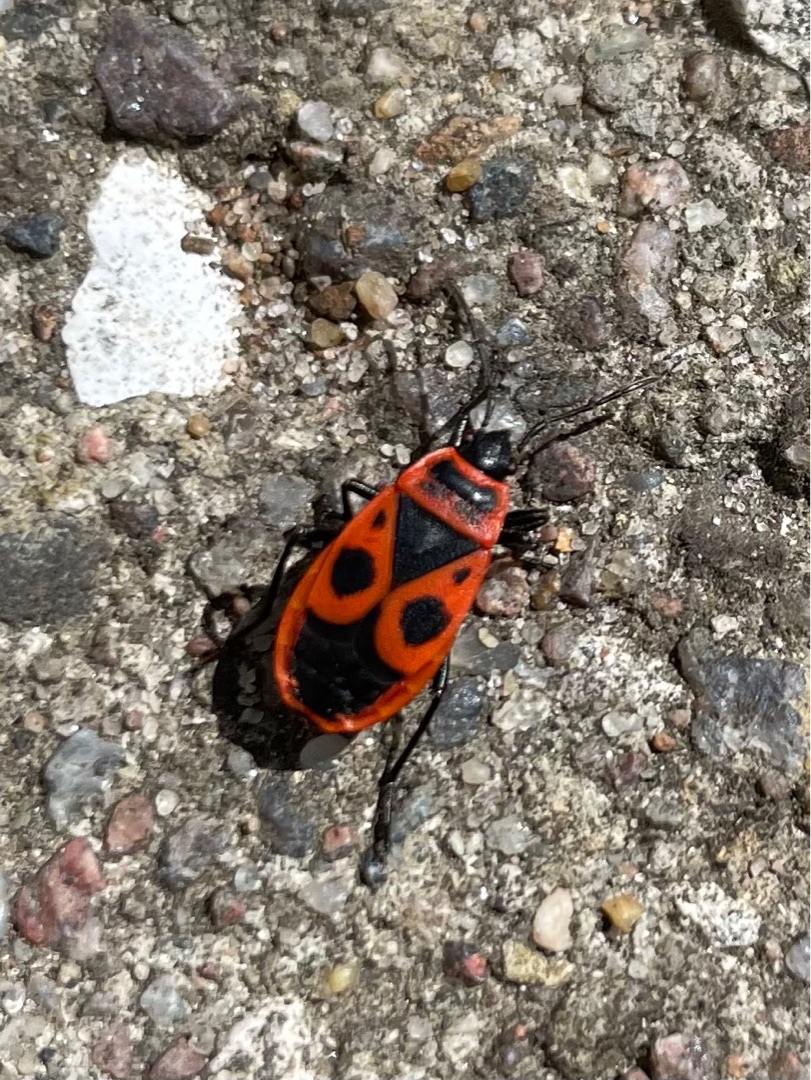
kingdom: Animalia
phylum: Arthropoda
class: Insecta
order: Hemiptera
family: Pyrrhocoridae
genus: Pyrrhocoris
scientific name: Pyrrhocoris apterus
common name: Ildtæge
